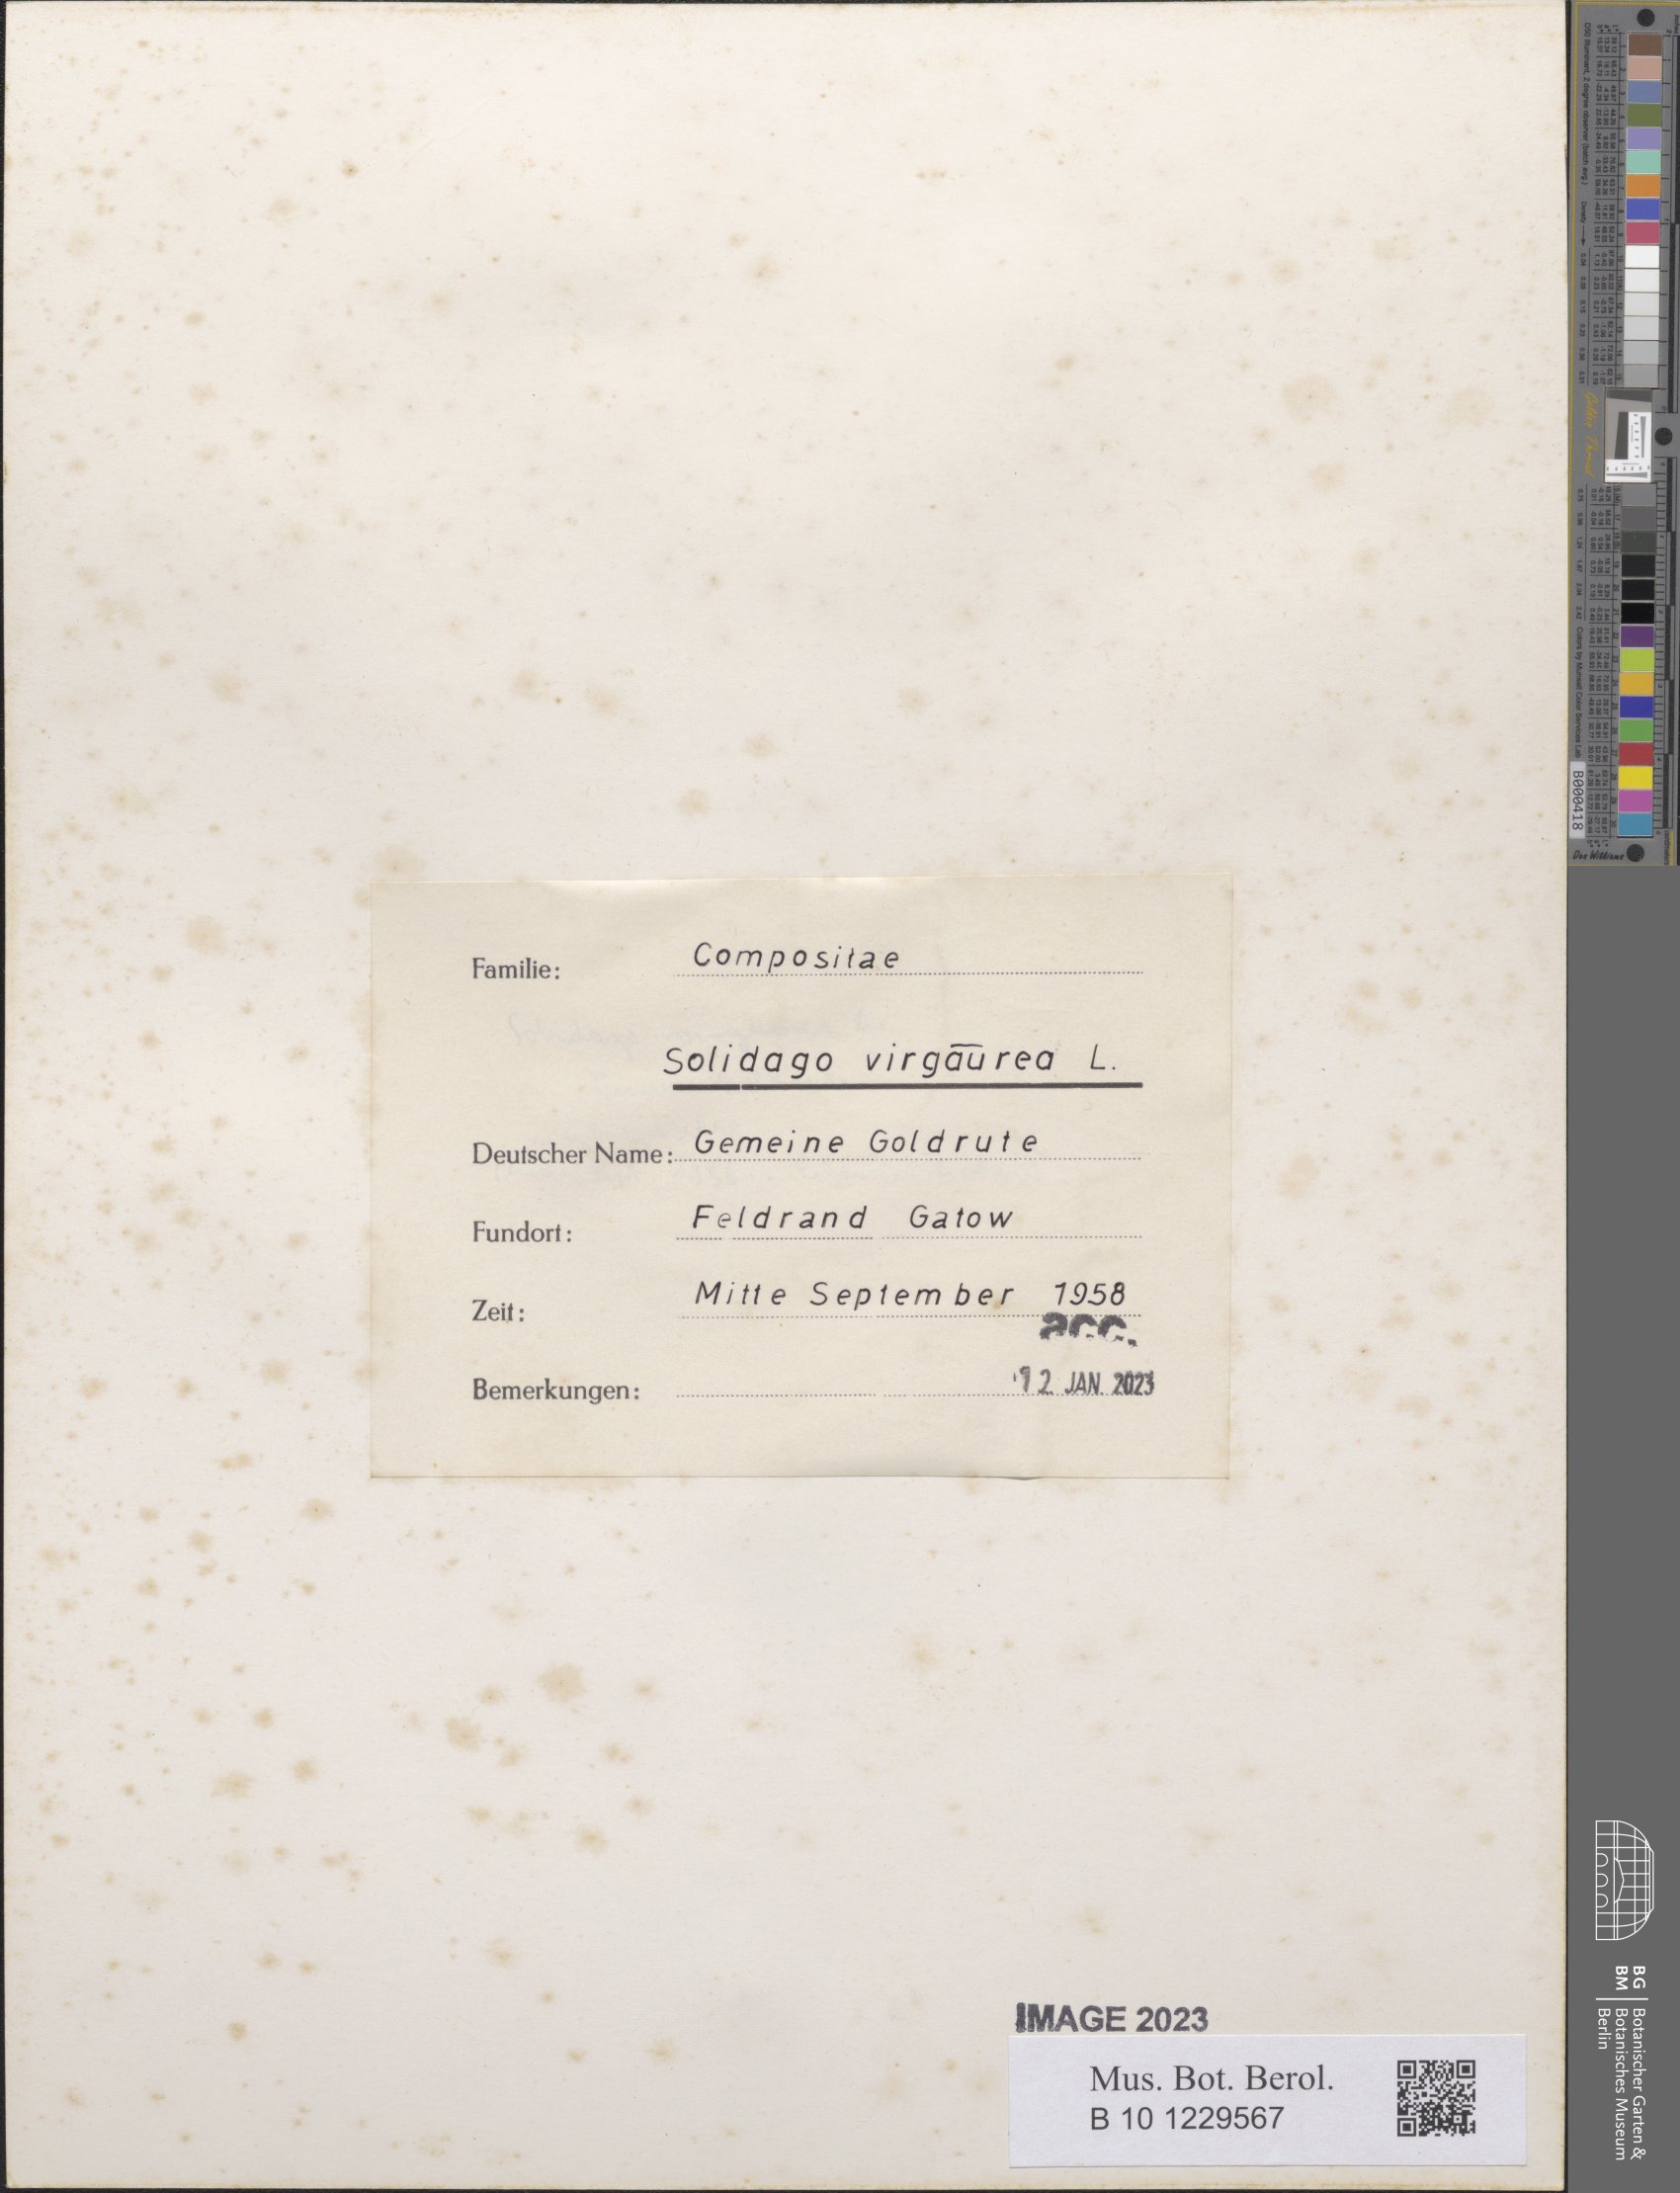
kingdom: Plantae
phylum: Tracheophyta
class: Magnoliopsida
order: Asterales
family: Asteraceae
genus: Solidago
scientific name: Solidago virgaurea
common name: Goldenrod
